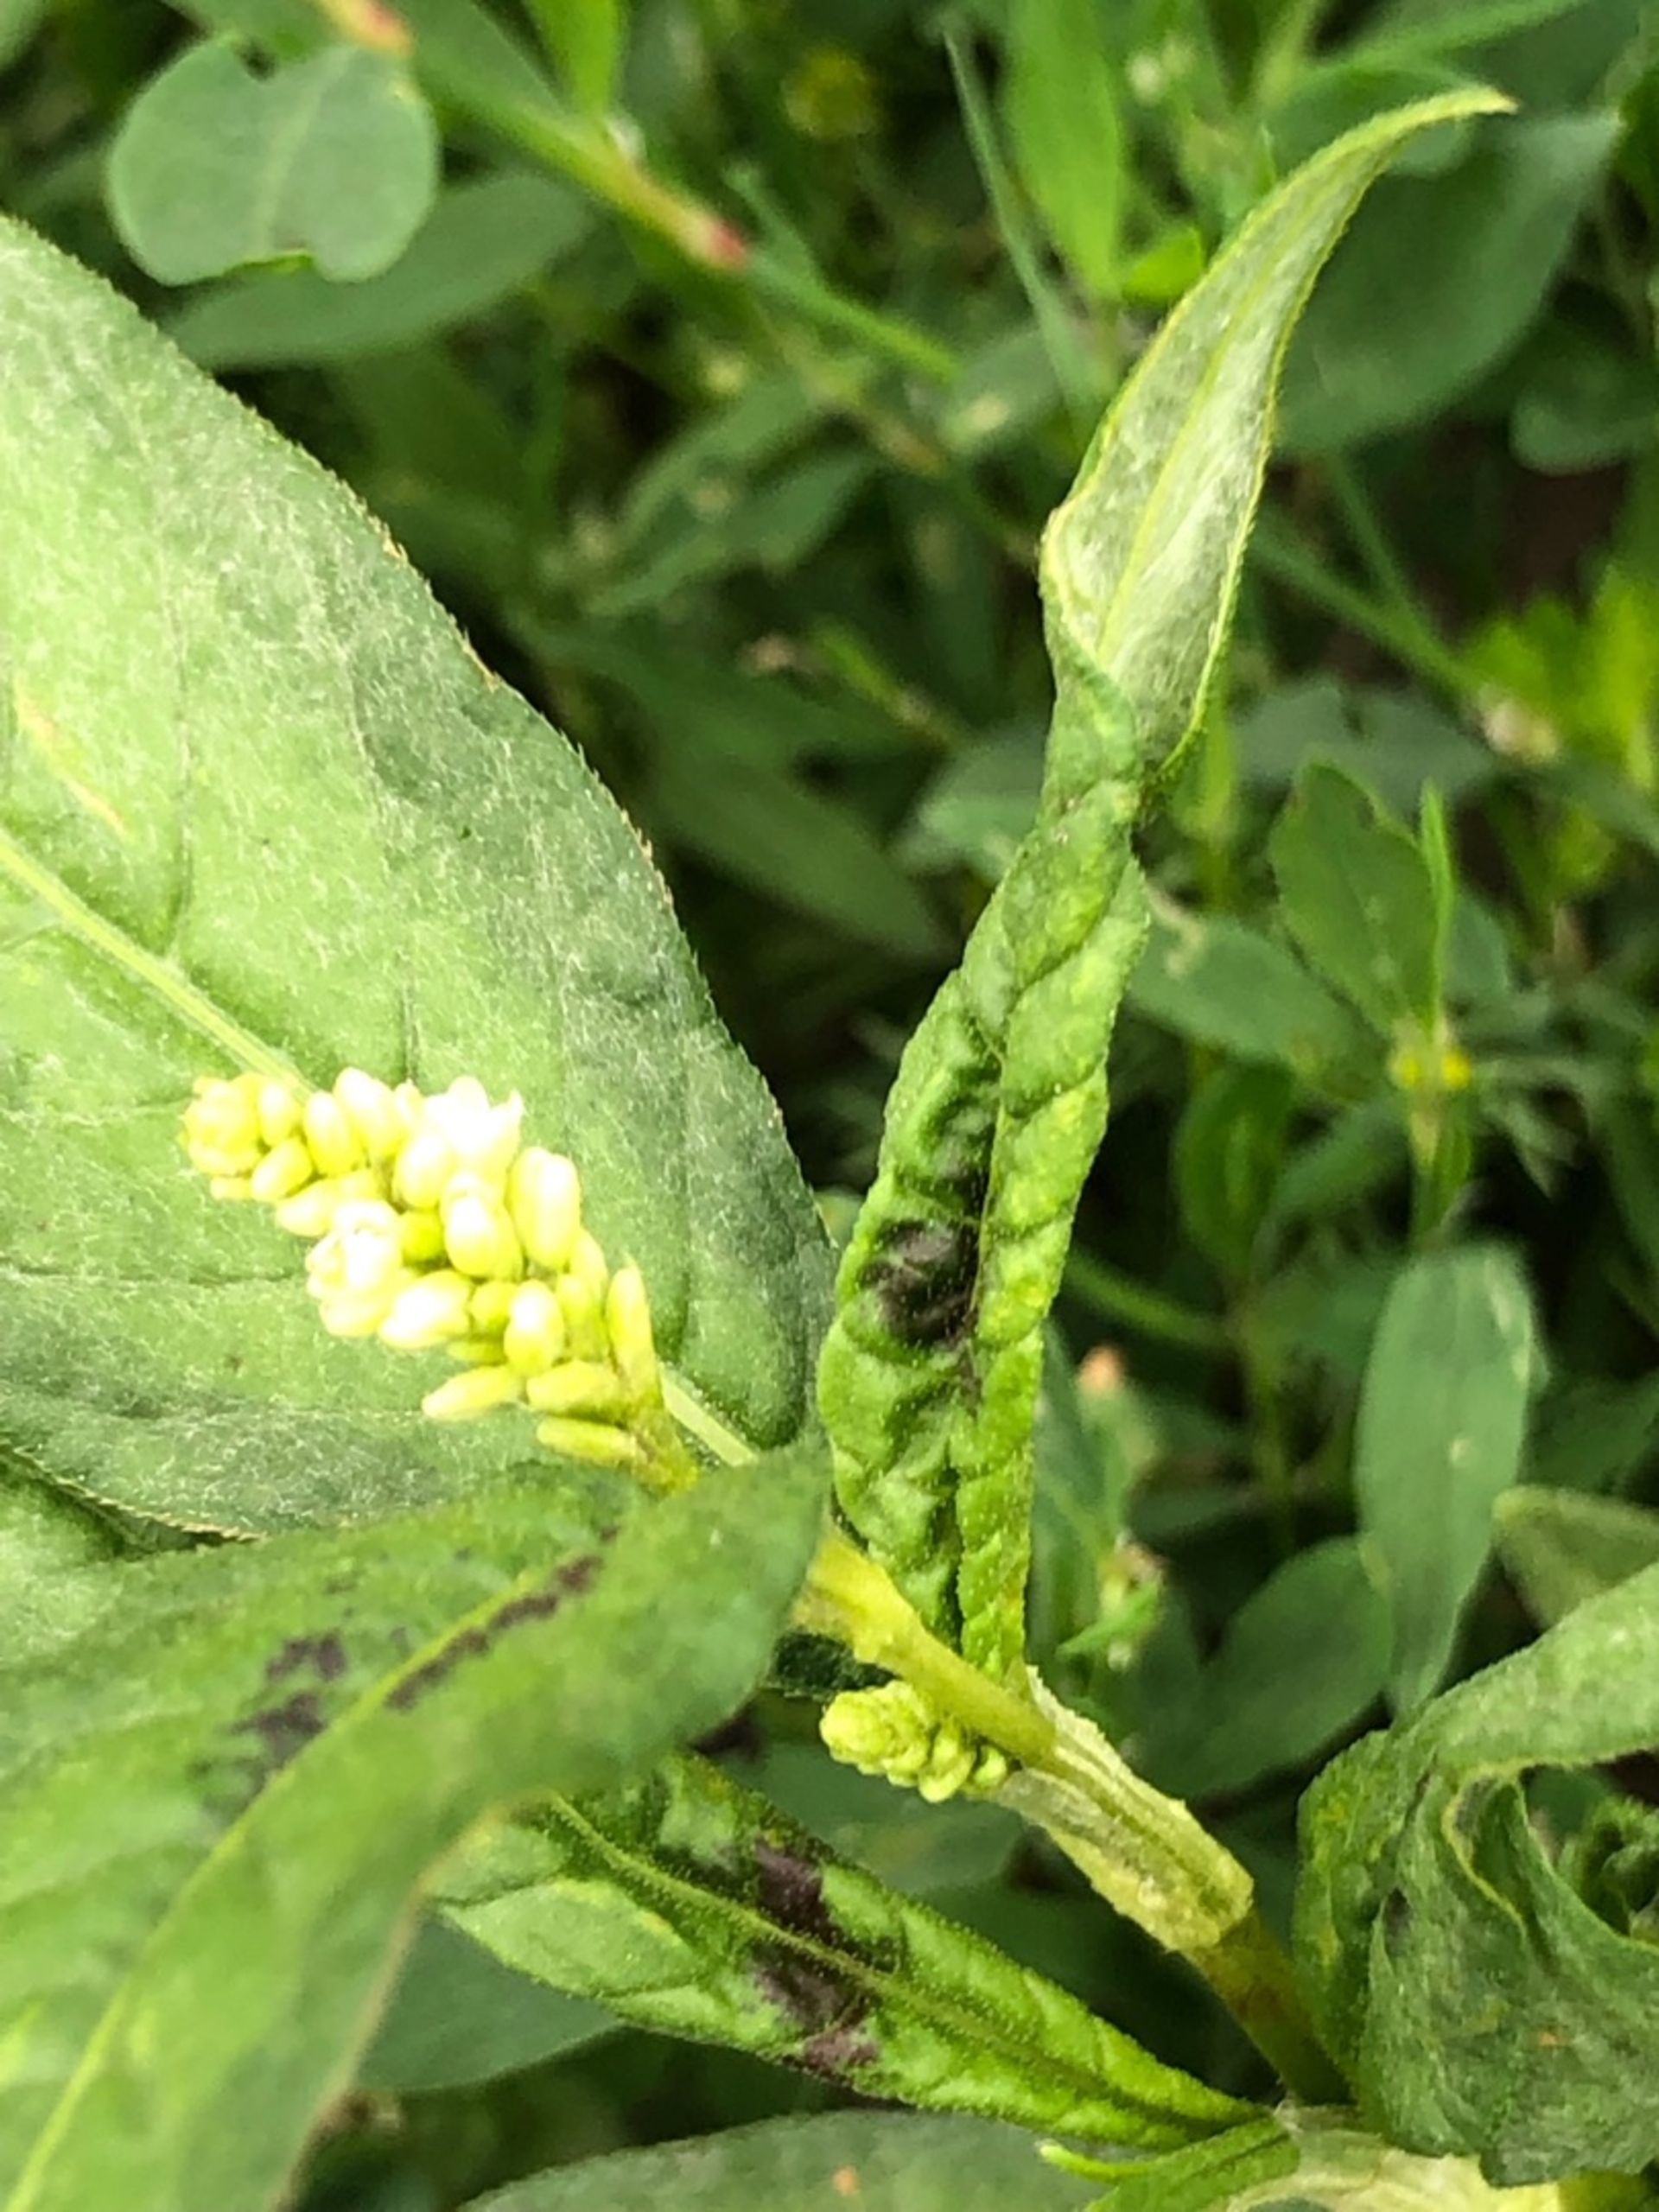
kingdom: Plantae
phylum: Tracheophyta
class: Magnoliopsida
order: Caryophyllales
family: Polygonaceae
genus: Persicaria
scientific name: Persicaria lapathifolia
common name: Knudet pileurt
